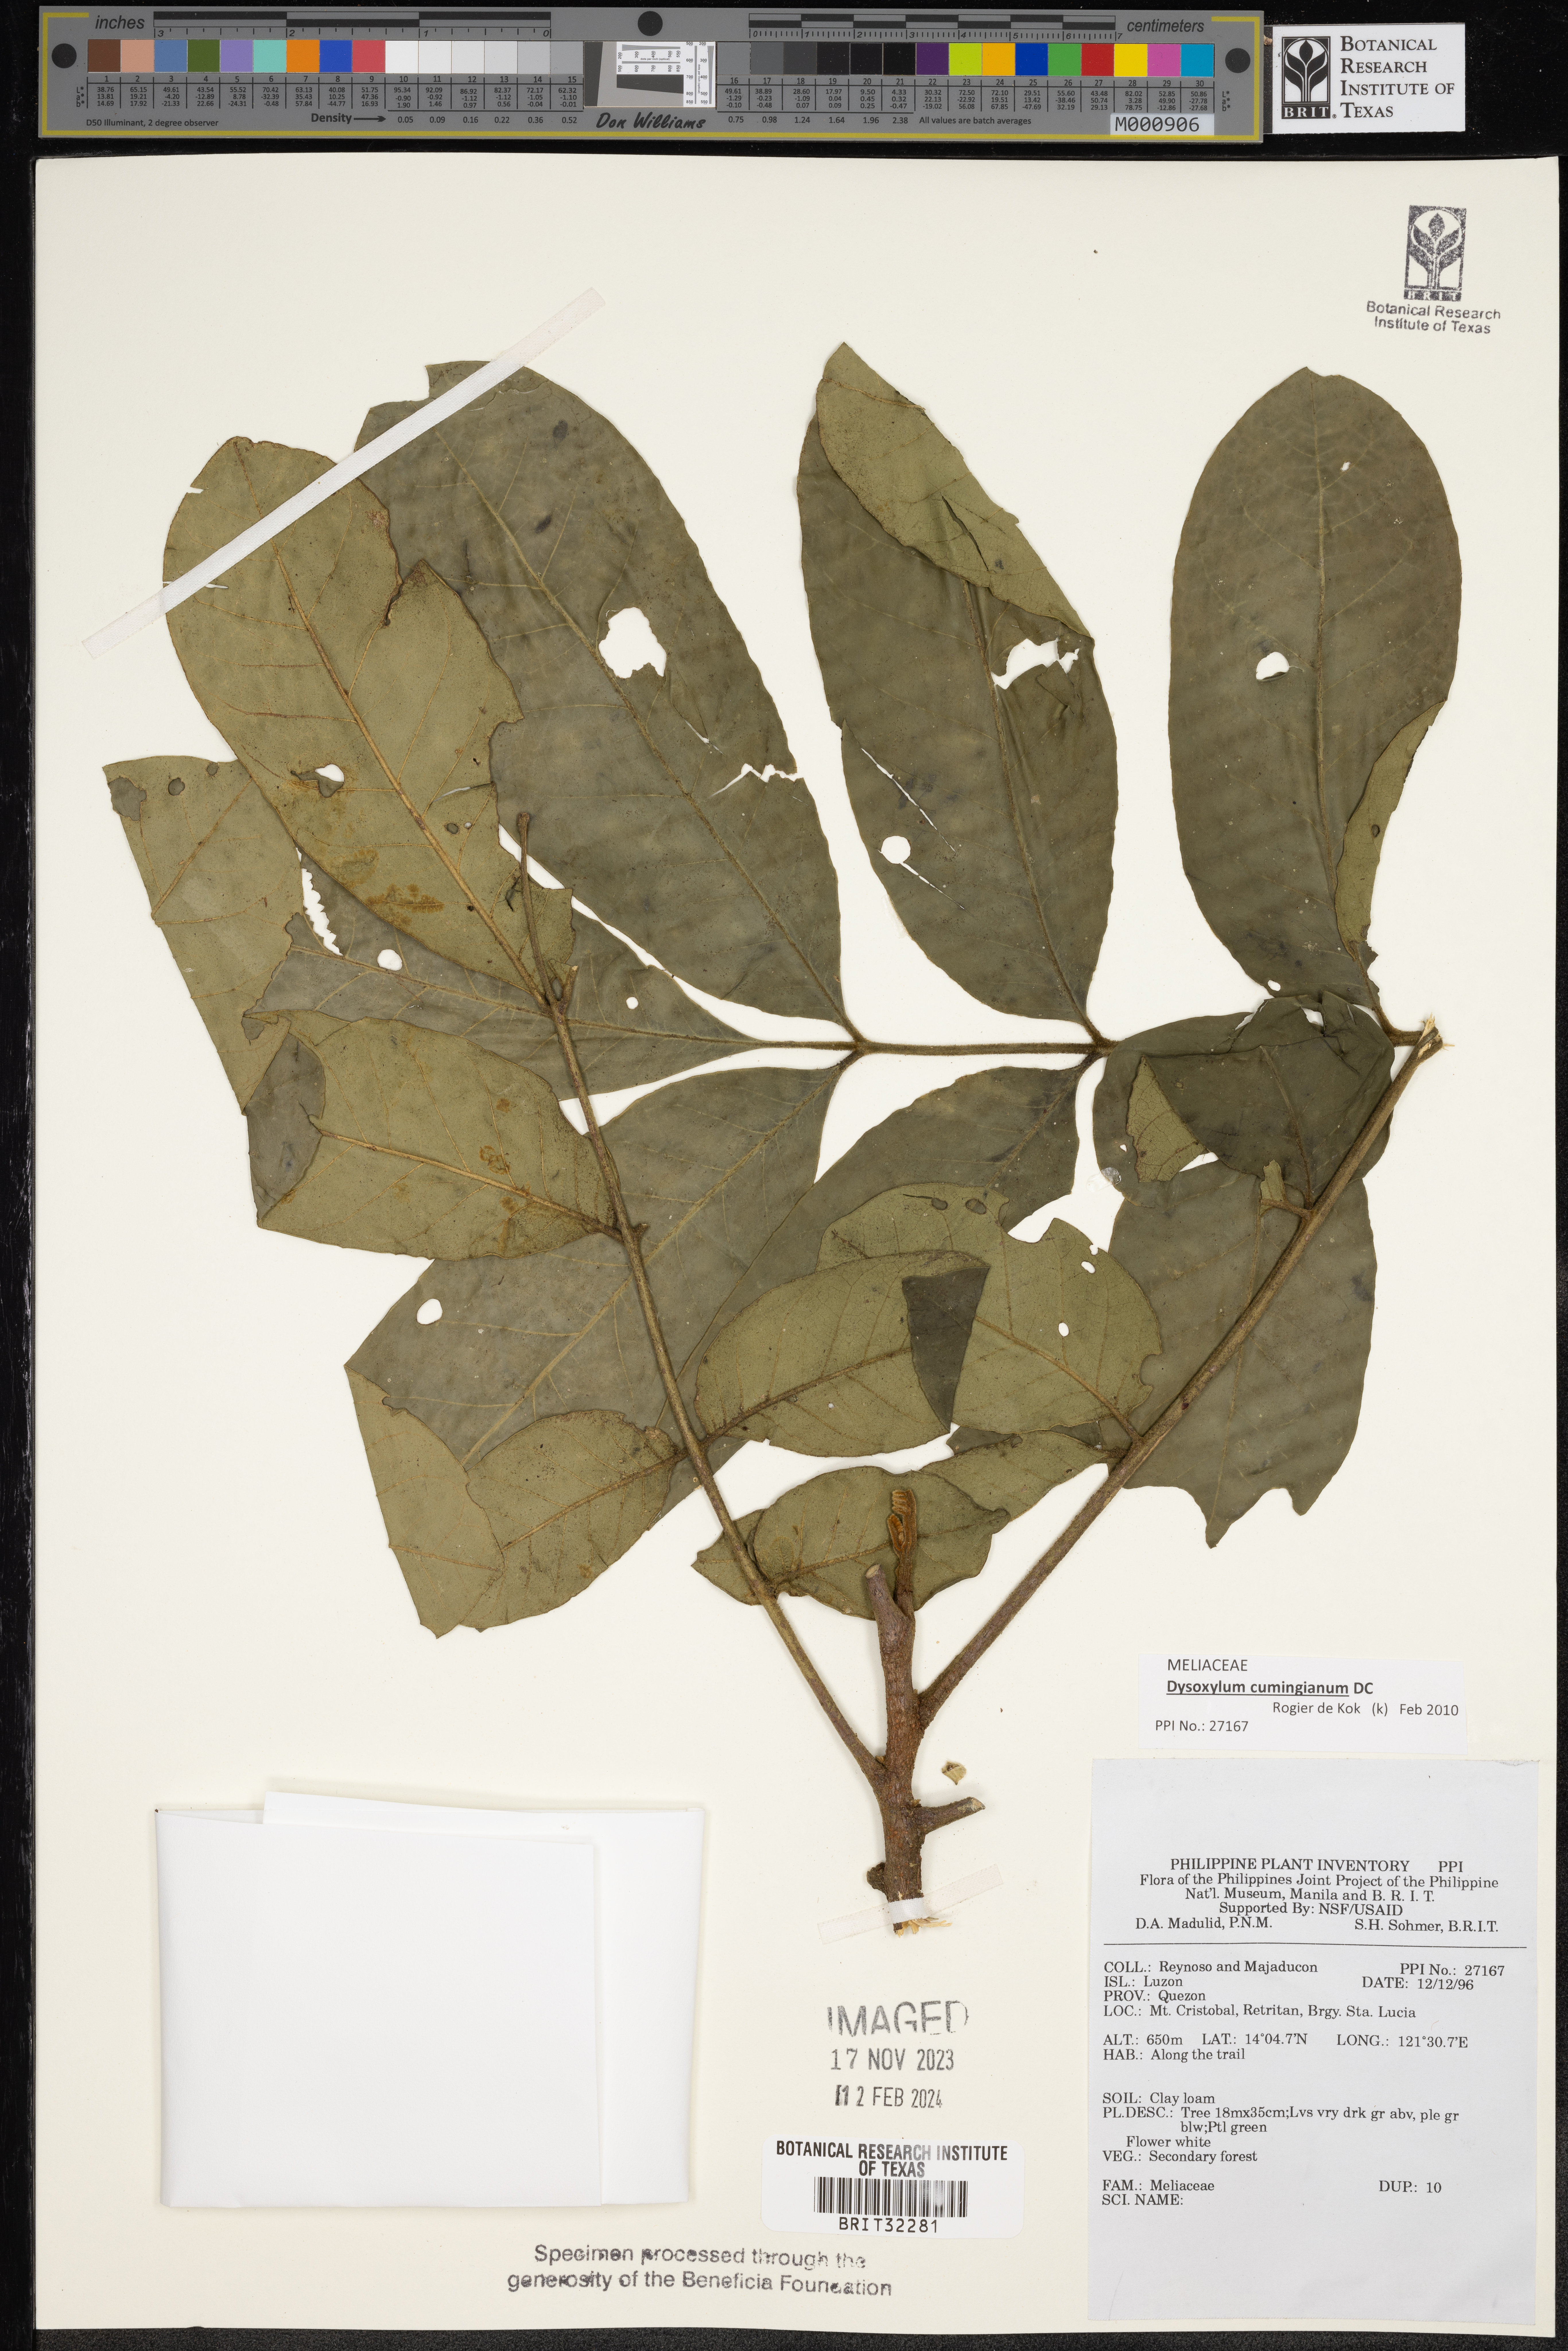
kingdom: Plantae
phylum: Tracheophyta
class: Magnoliopsida
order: Sapindales
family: Meliaceae
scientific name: Meliaceae
